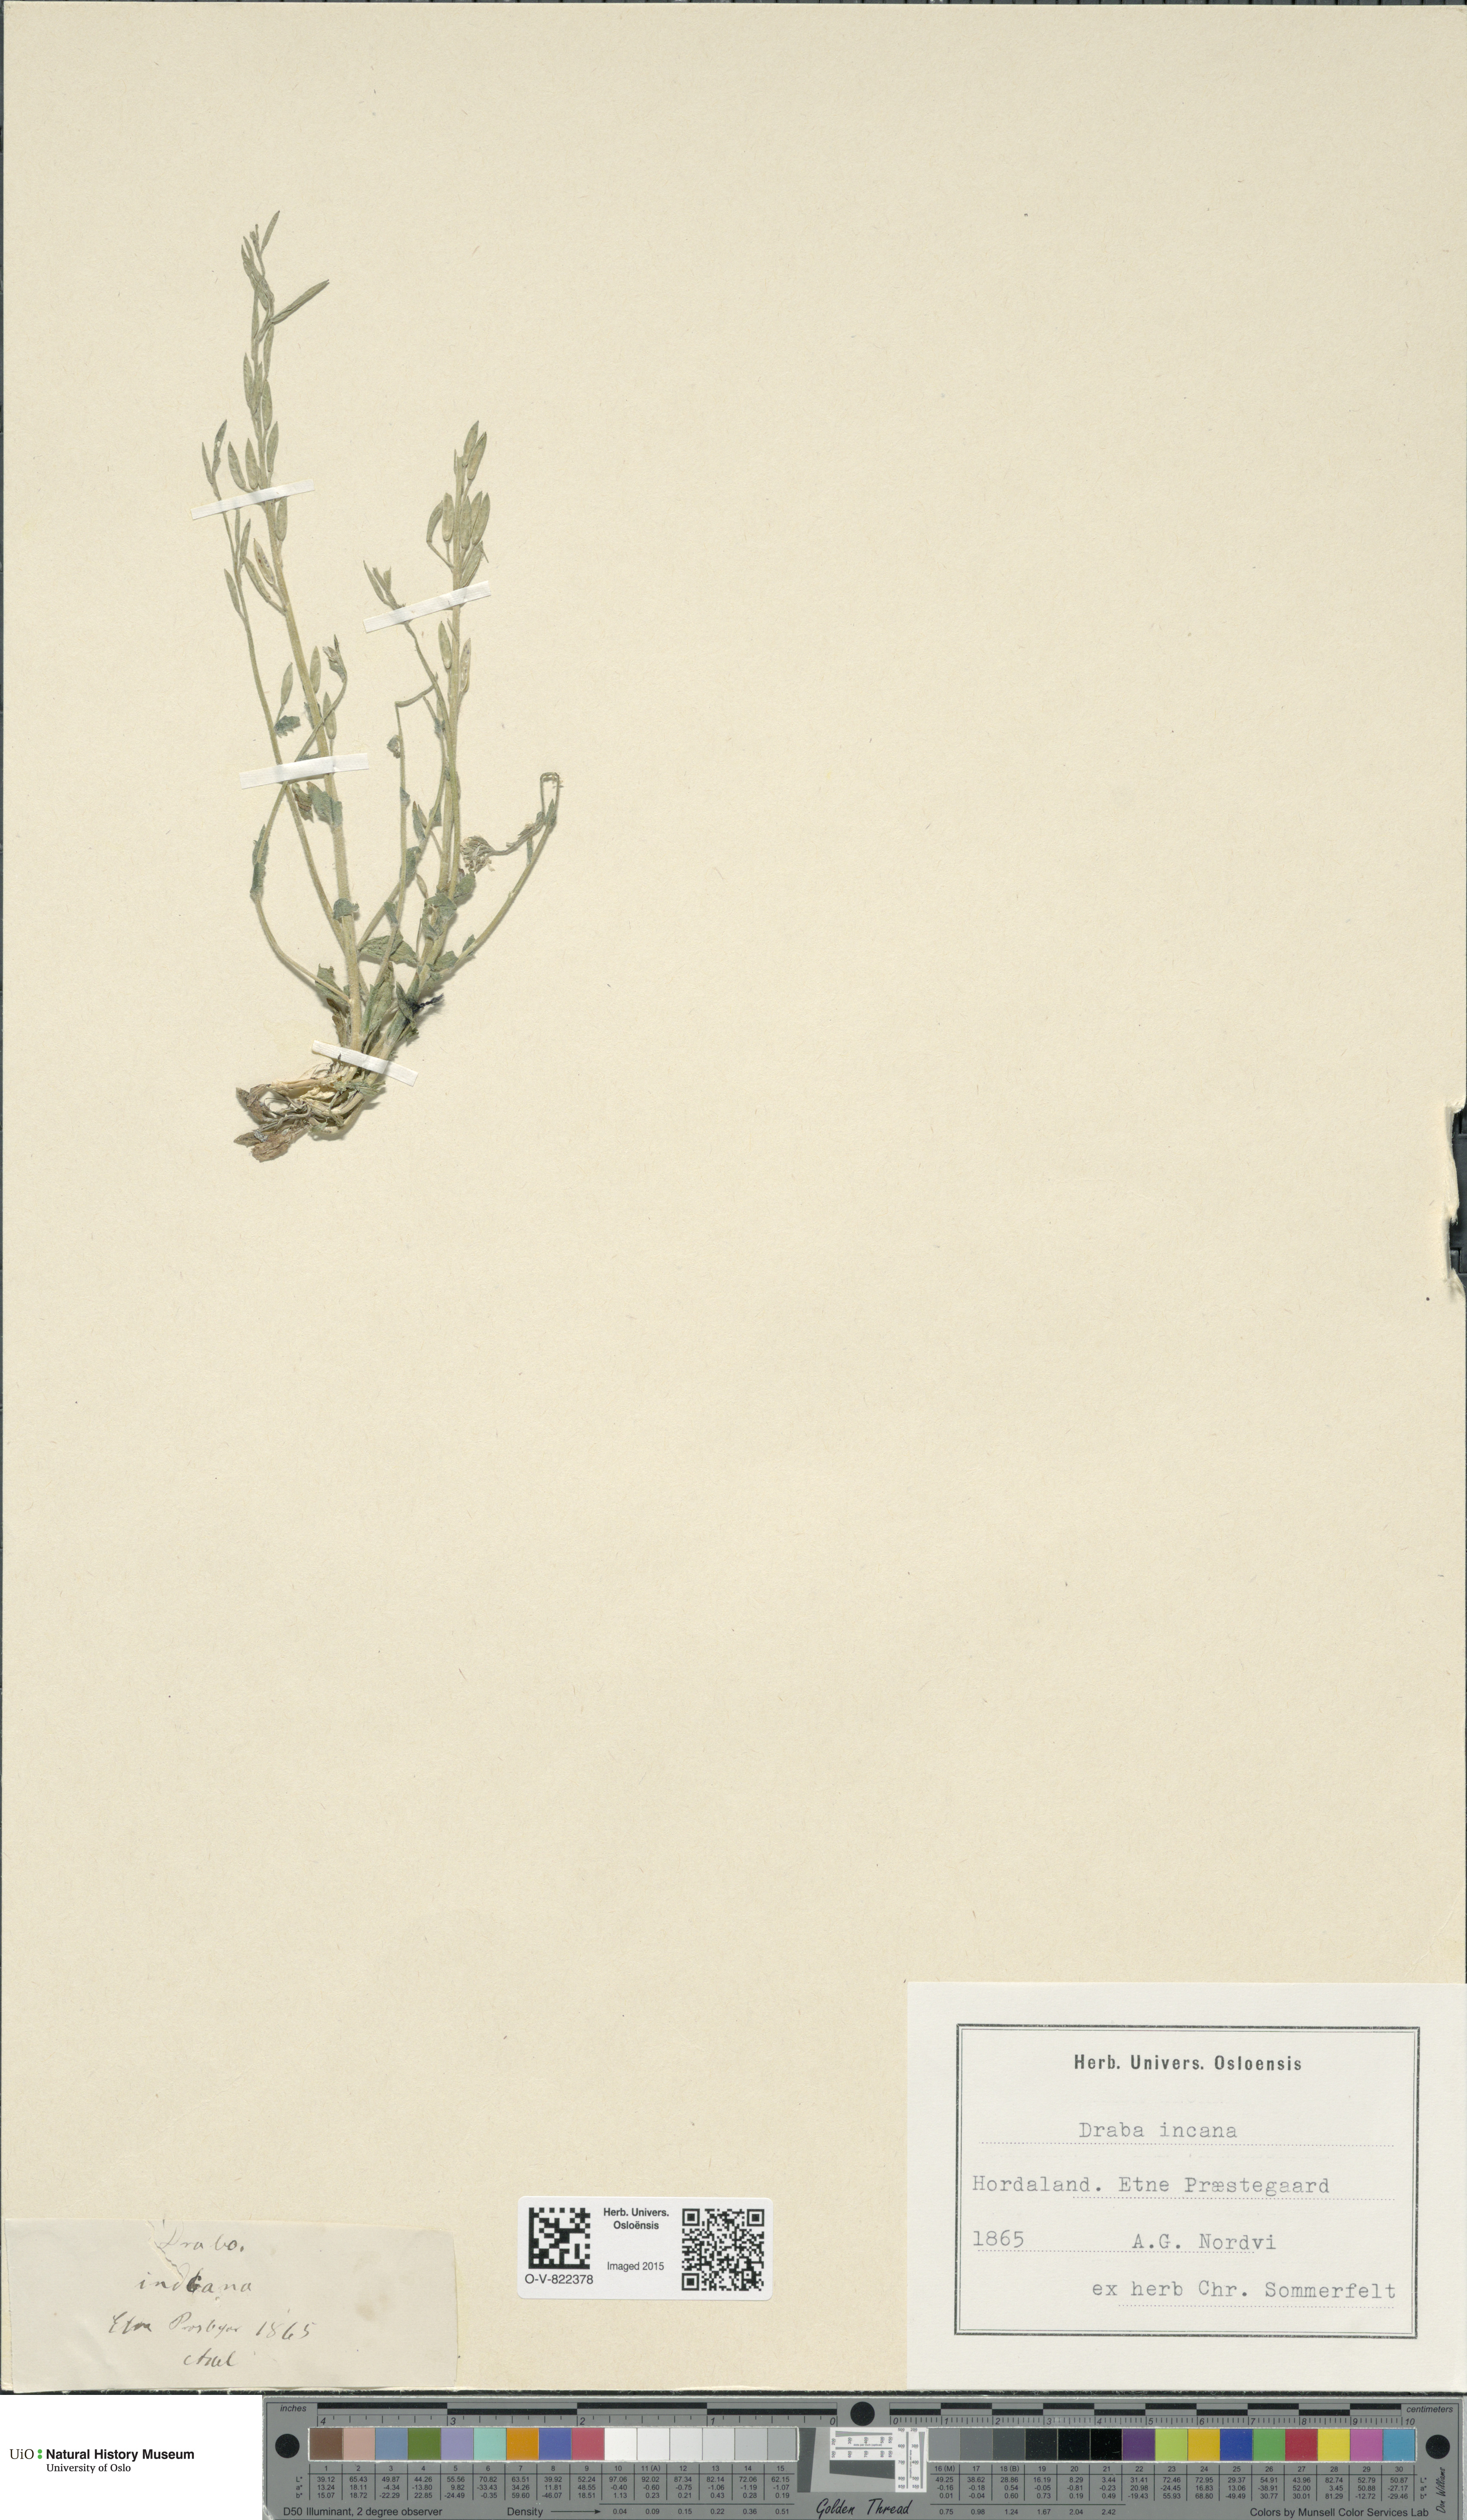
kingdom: Plantae
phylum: Tracheophyta
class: Magnoliopsida
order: Brassicales
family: Brassicaceae
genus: Draba
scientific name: Draba incana
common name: Hoary whitlow-grass
